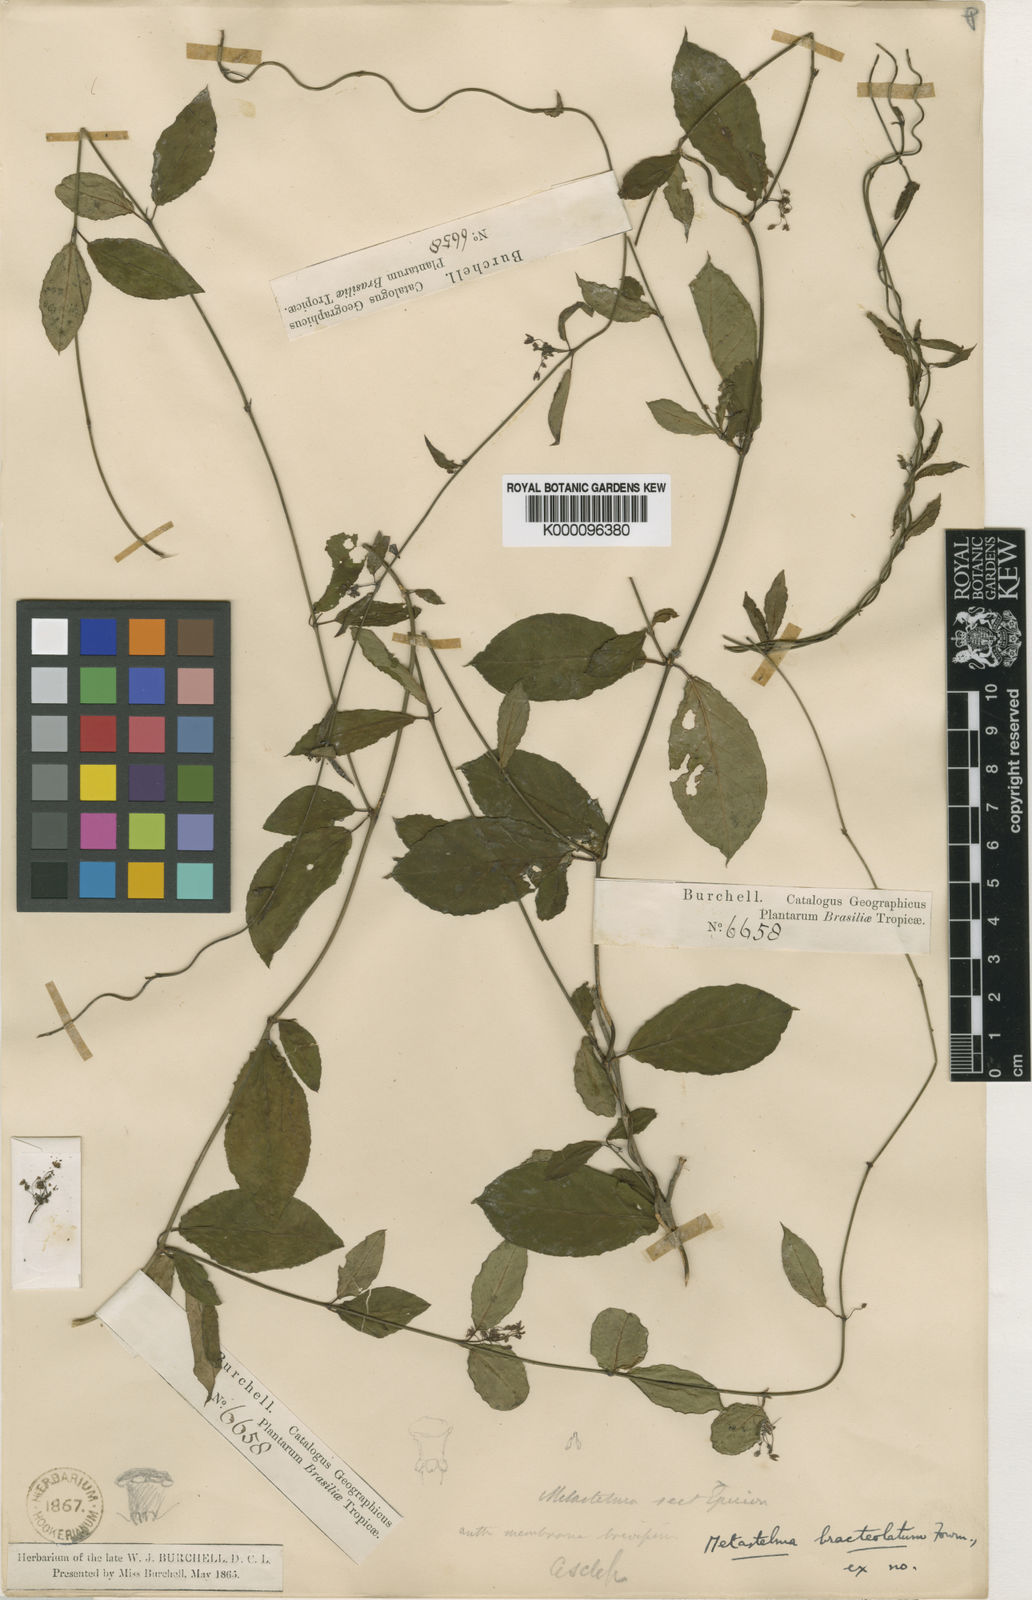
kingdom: Plantae
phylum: Tracheophyta
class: Magnoliopsida
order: Gentianales
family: Apocynaceae
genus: Petalostelma
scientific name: Petalostelma bracteolatum
